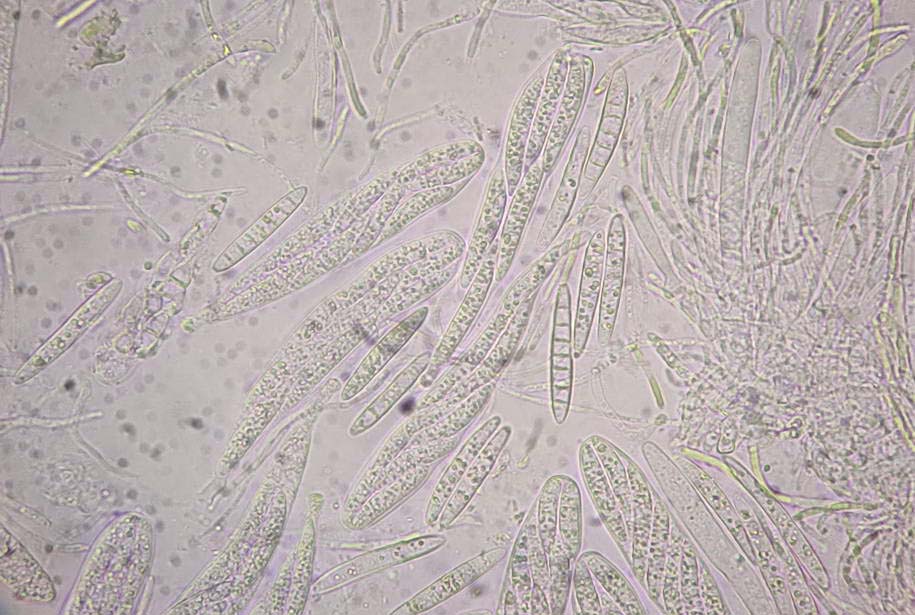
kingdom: Fungi
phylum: Ascomycota
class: Leotiomycetes
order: Helotiales
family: Helotiaceae
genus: Durella
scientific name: Durella connivens
